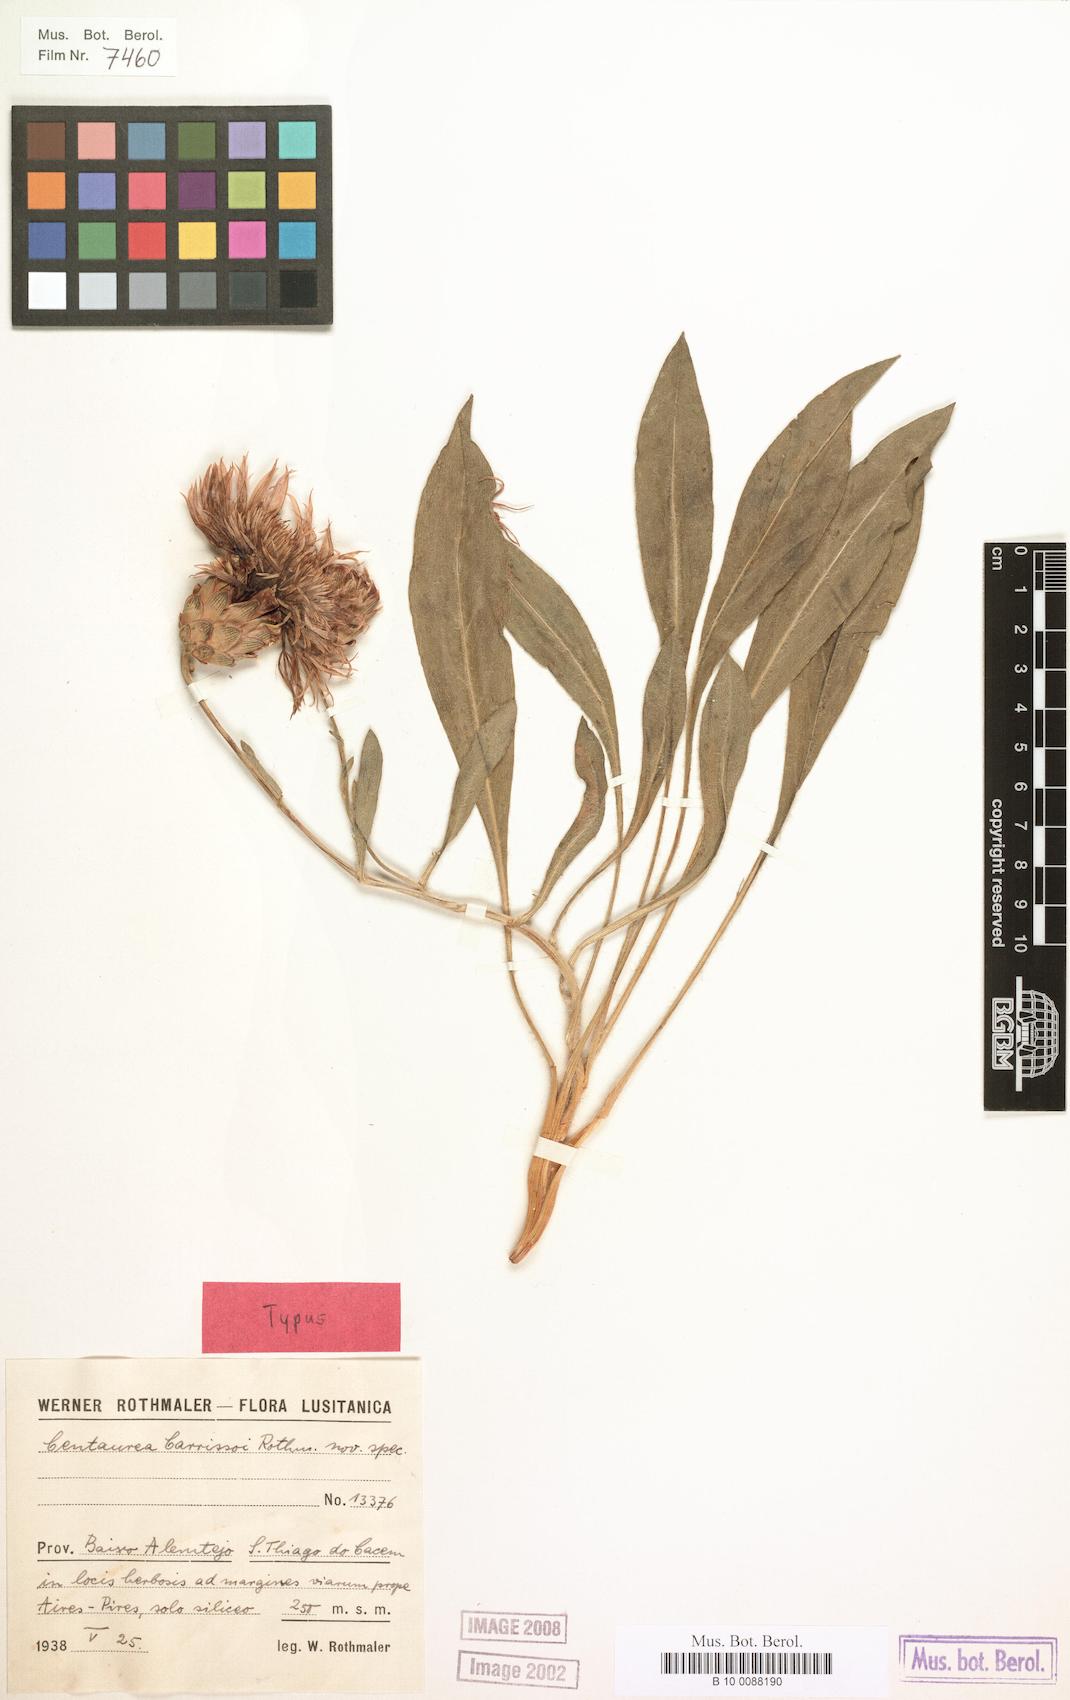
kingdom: Plantae
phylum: Tracheophyta
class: Magnoliopsida
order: Asterales
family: Asteraceae
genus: Rhaponticoides
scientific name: Rhaponticoides fraylensis
